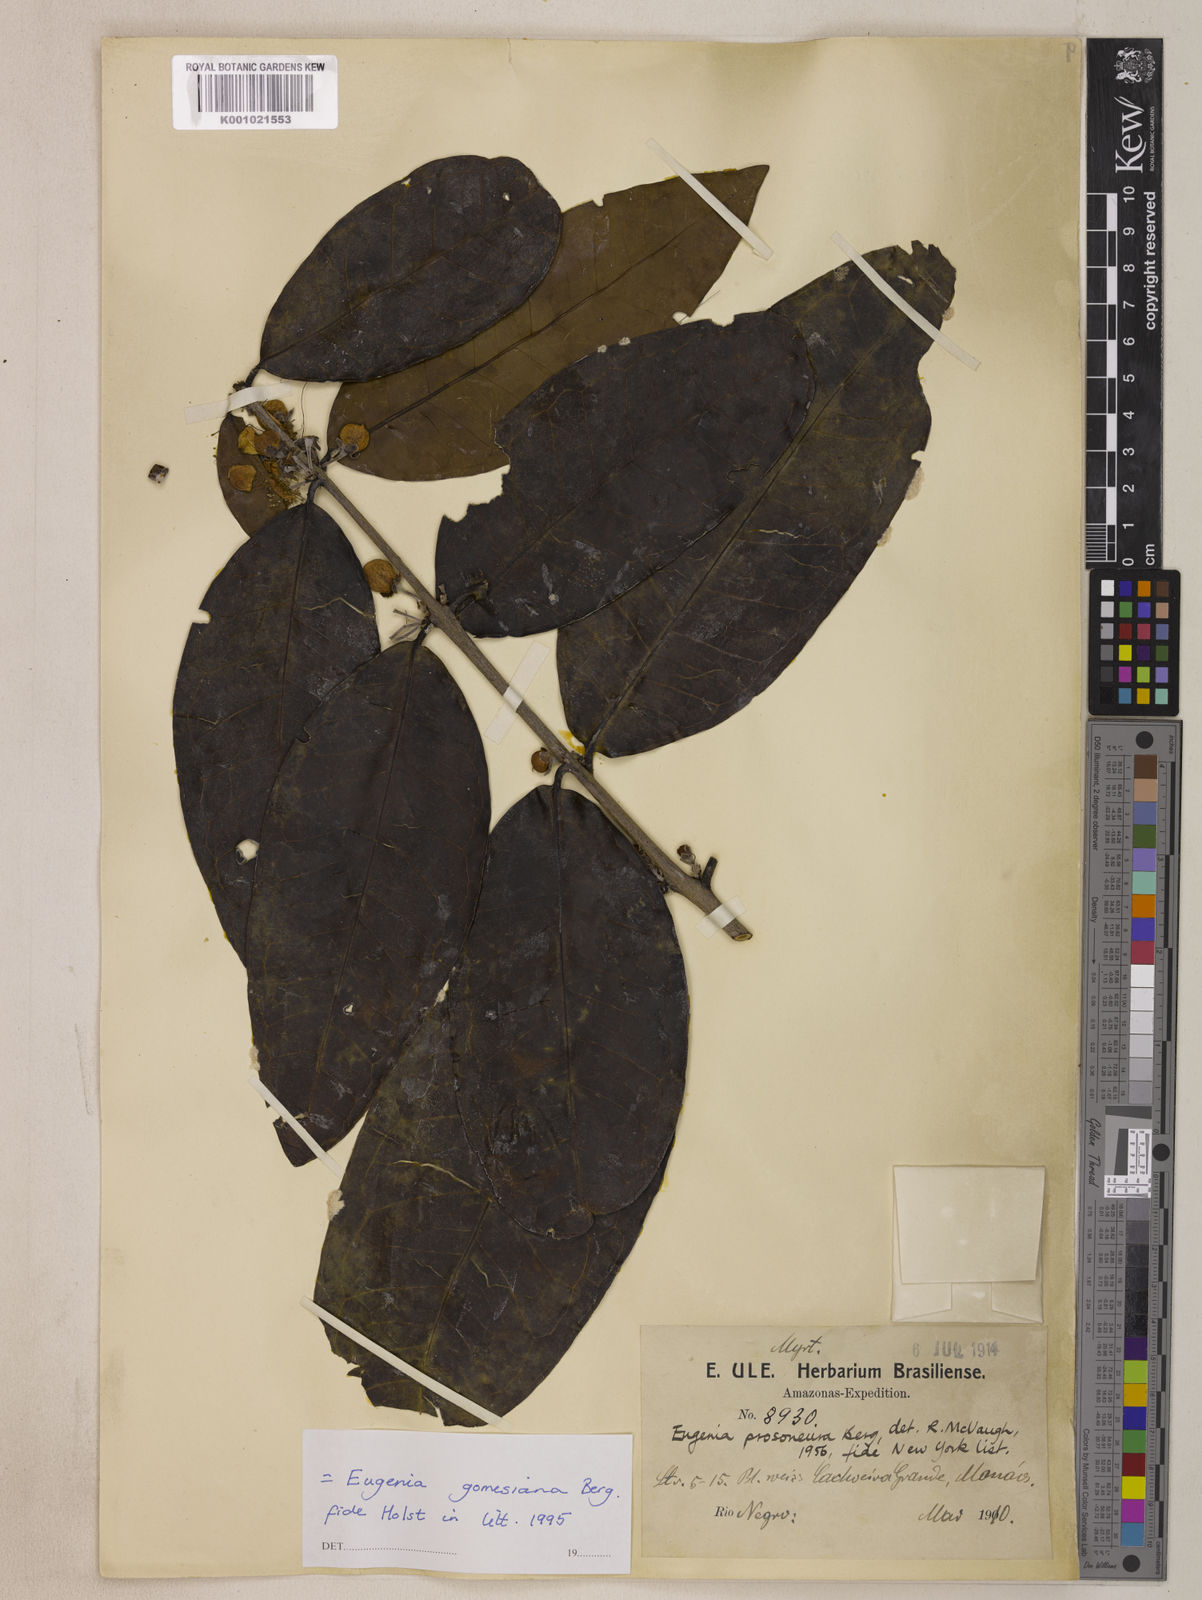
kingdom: Plantae
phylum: Tracheophyta
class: Magnoliopsida
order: Myrtales
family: Myrtaceae
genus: Eugenia
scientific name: Eugenia gomesiana
